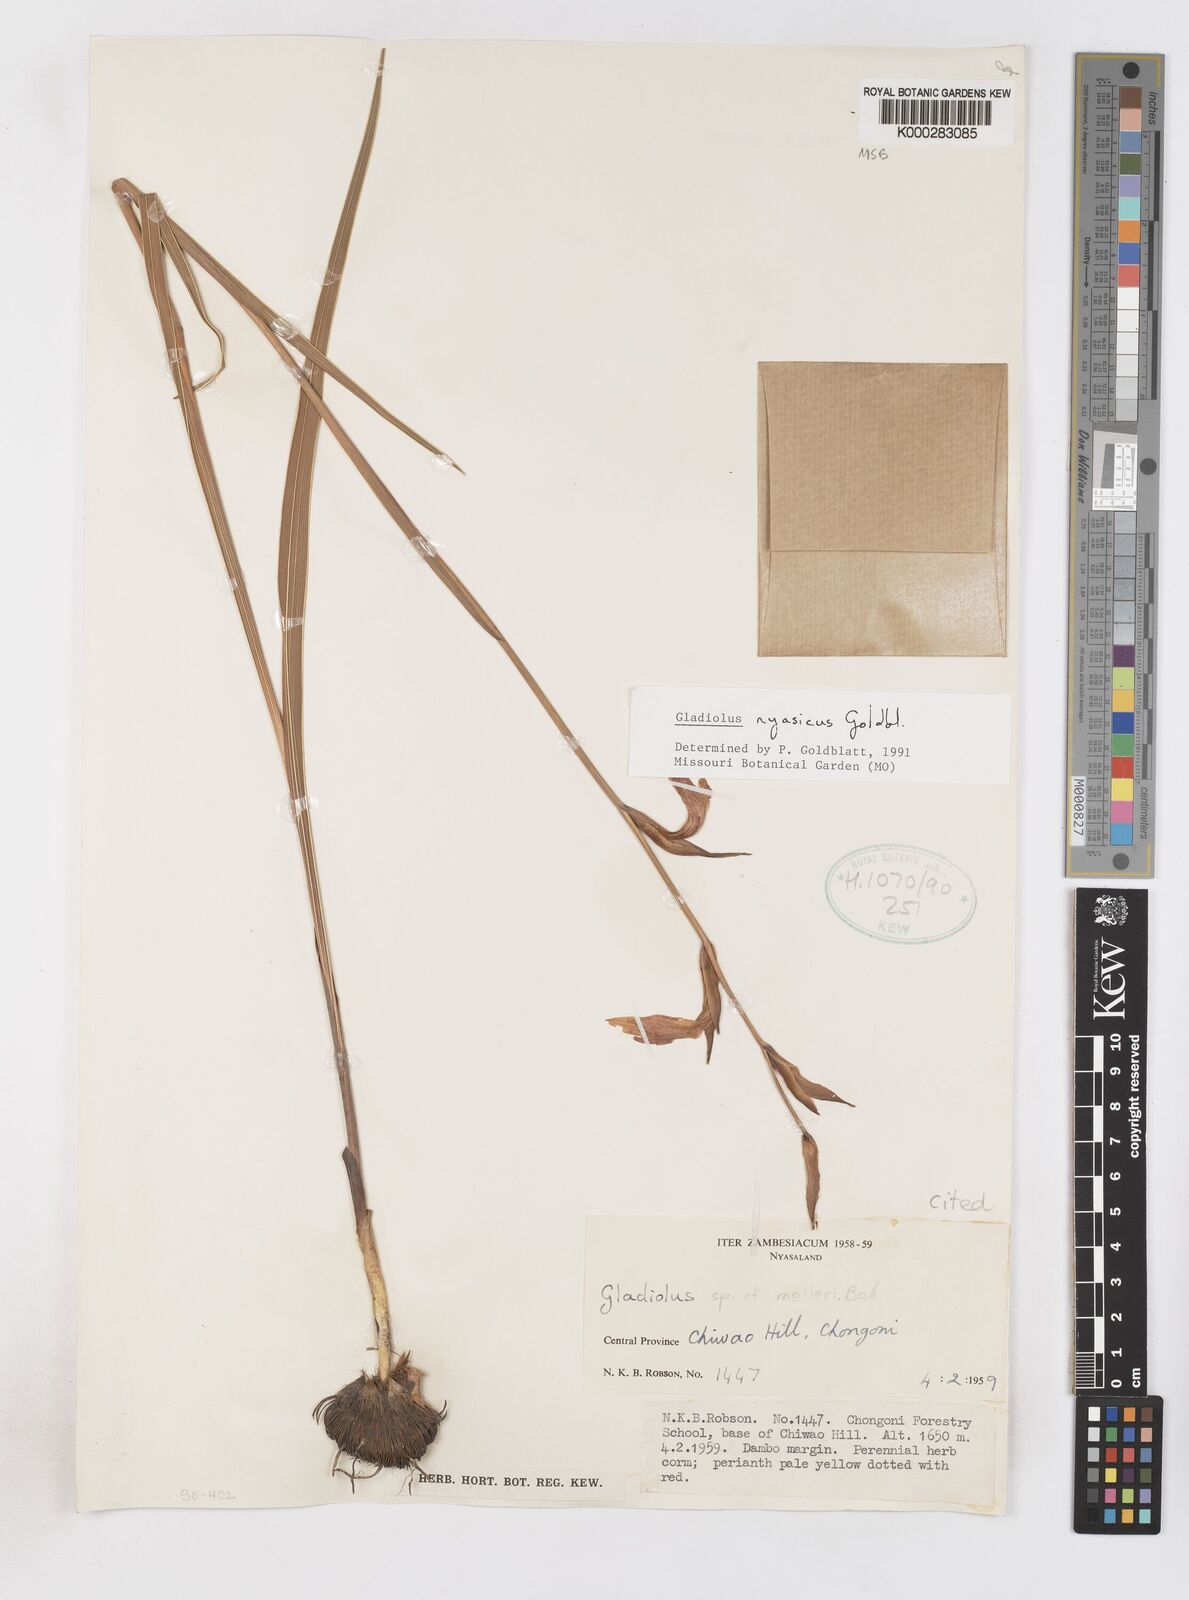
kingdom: Plantae
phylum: Tracheophyta
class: Liliopsida
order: Asparagales
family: Iridaceae
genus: Gladiolus
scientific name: Gladiolus nyasicus
